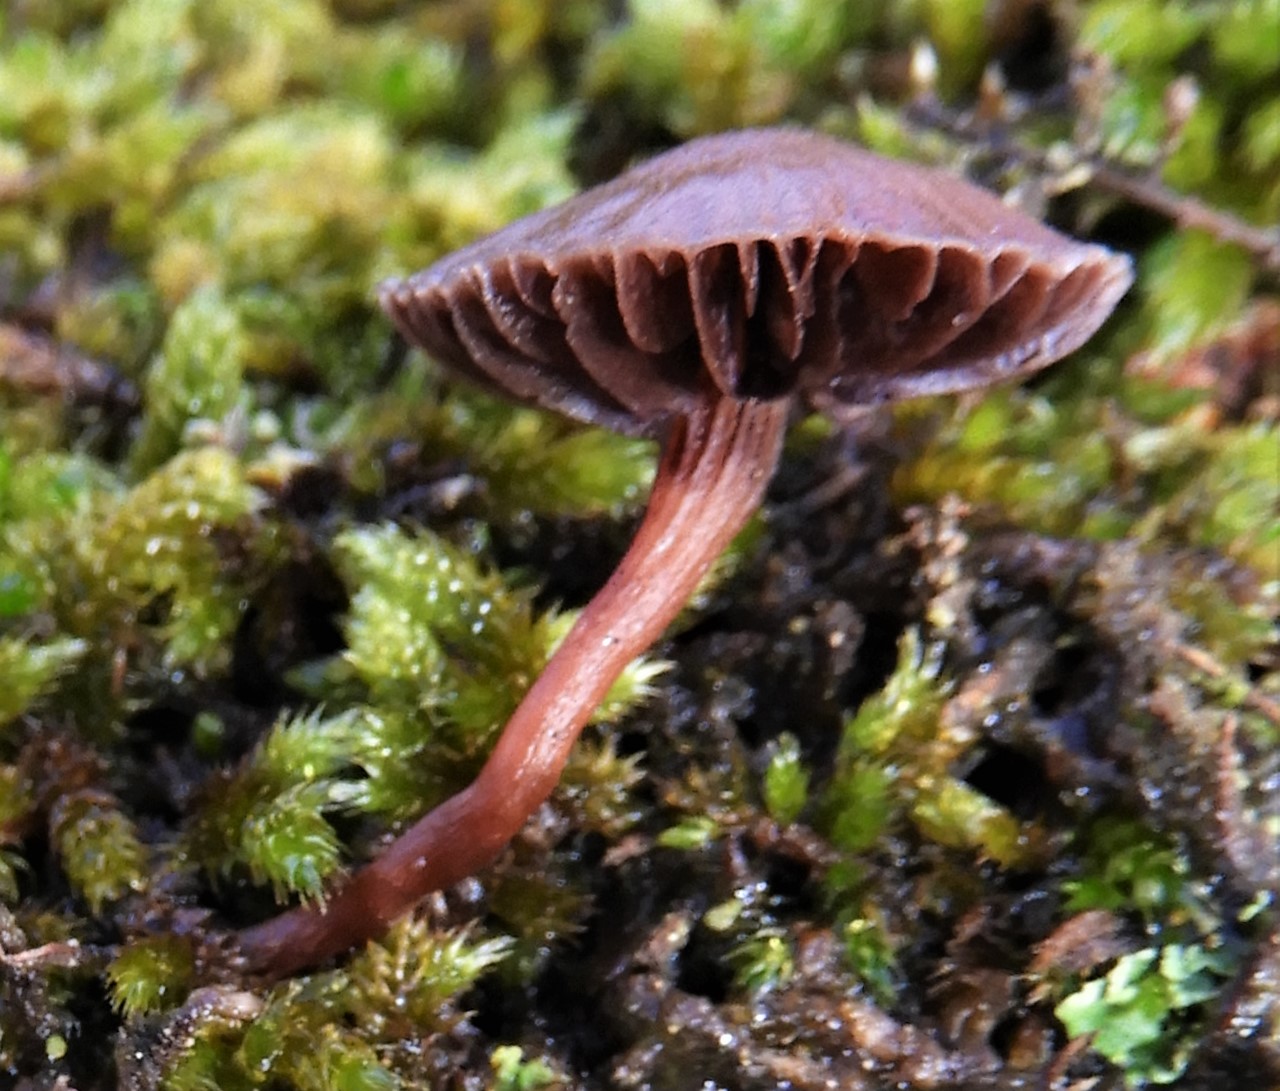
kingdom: Fungi
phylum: Basidiomycota
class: Agaricomycetes
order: Agaricales
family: Strophariaceae
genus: Deconica
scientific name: Deconica
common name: stråhat
